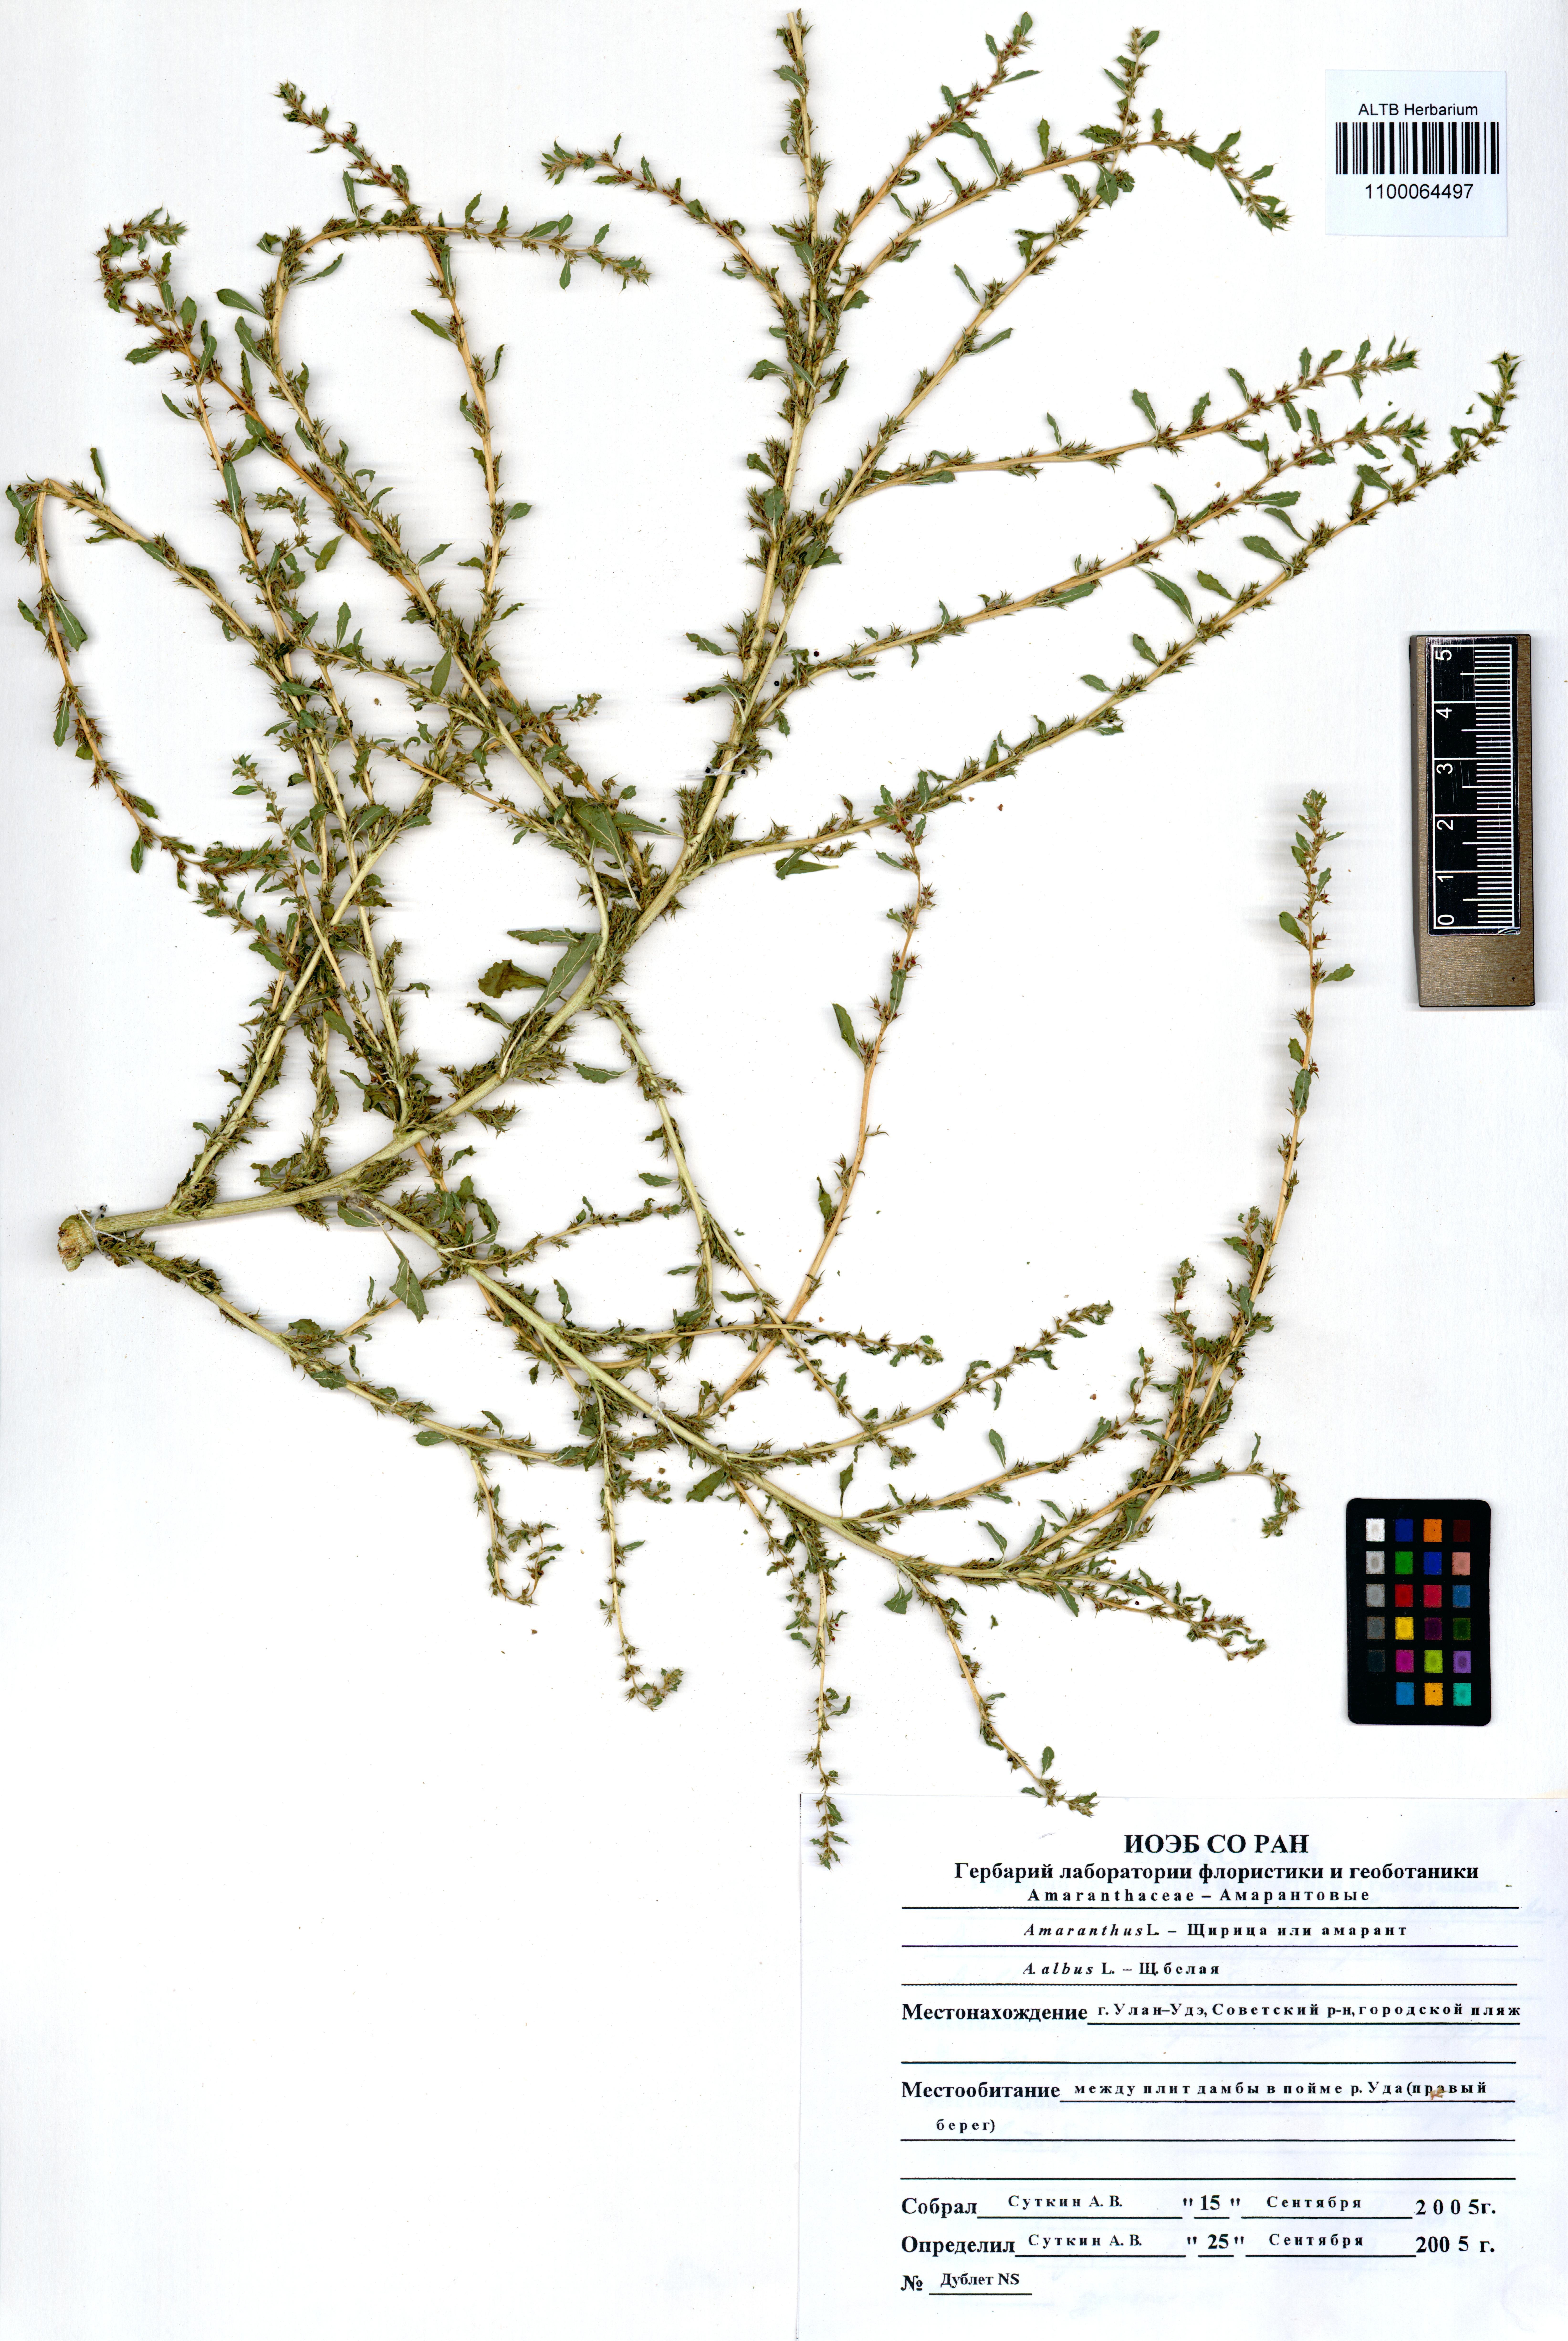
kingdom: Plantae
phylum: Tracheophyta
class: Magnoliopsida
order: Caryophyllales
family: Amaranthaceae
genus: Amaranthus
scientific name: Amaranthus albus
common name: White pigweed
